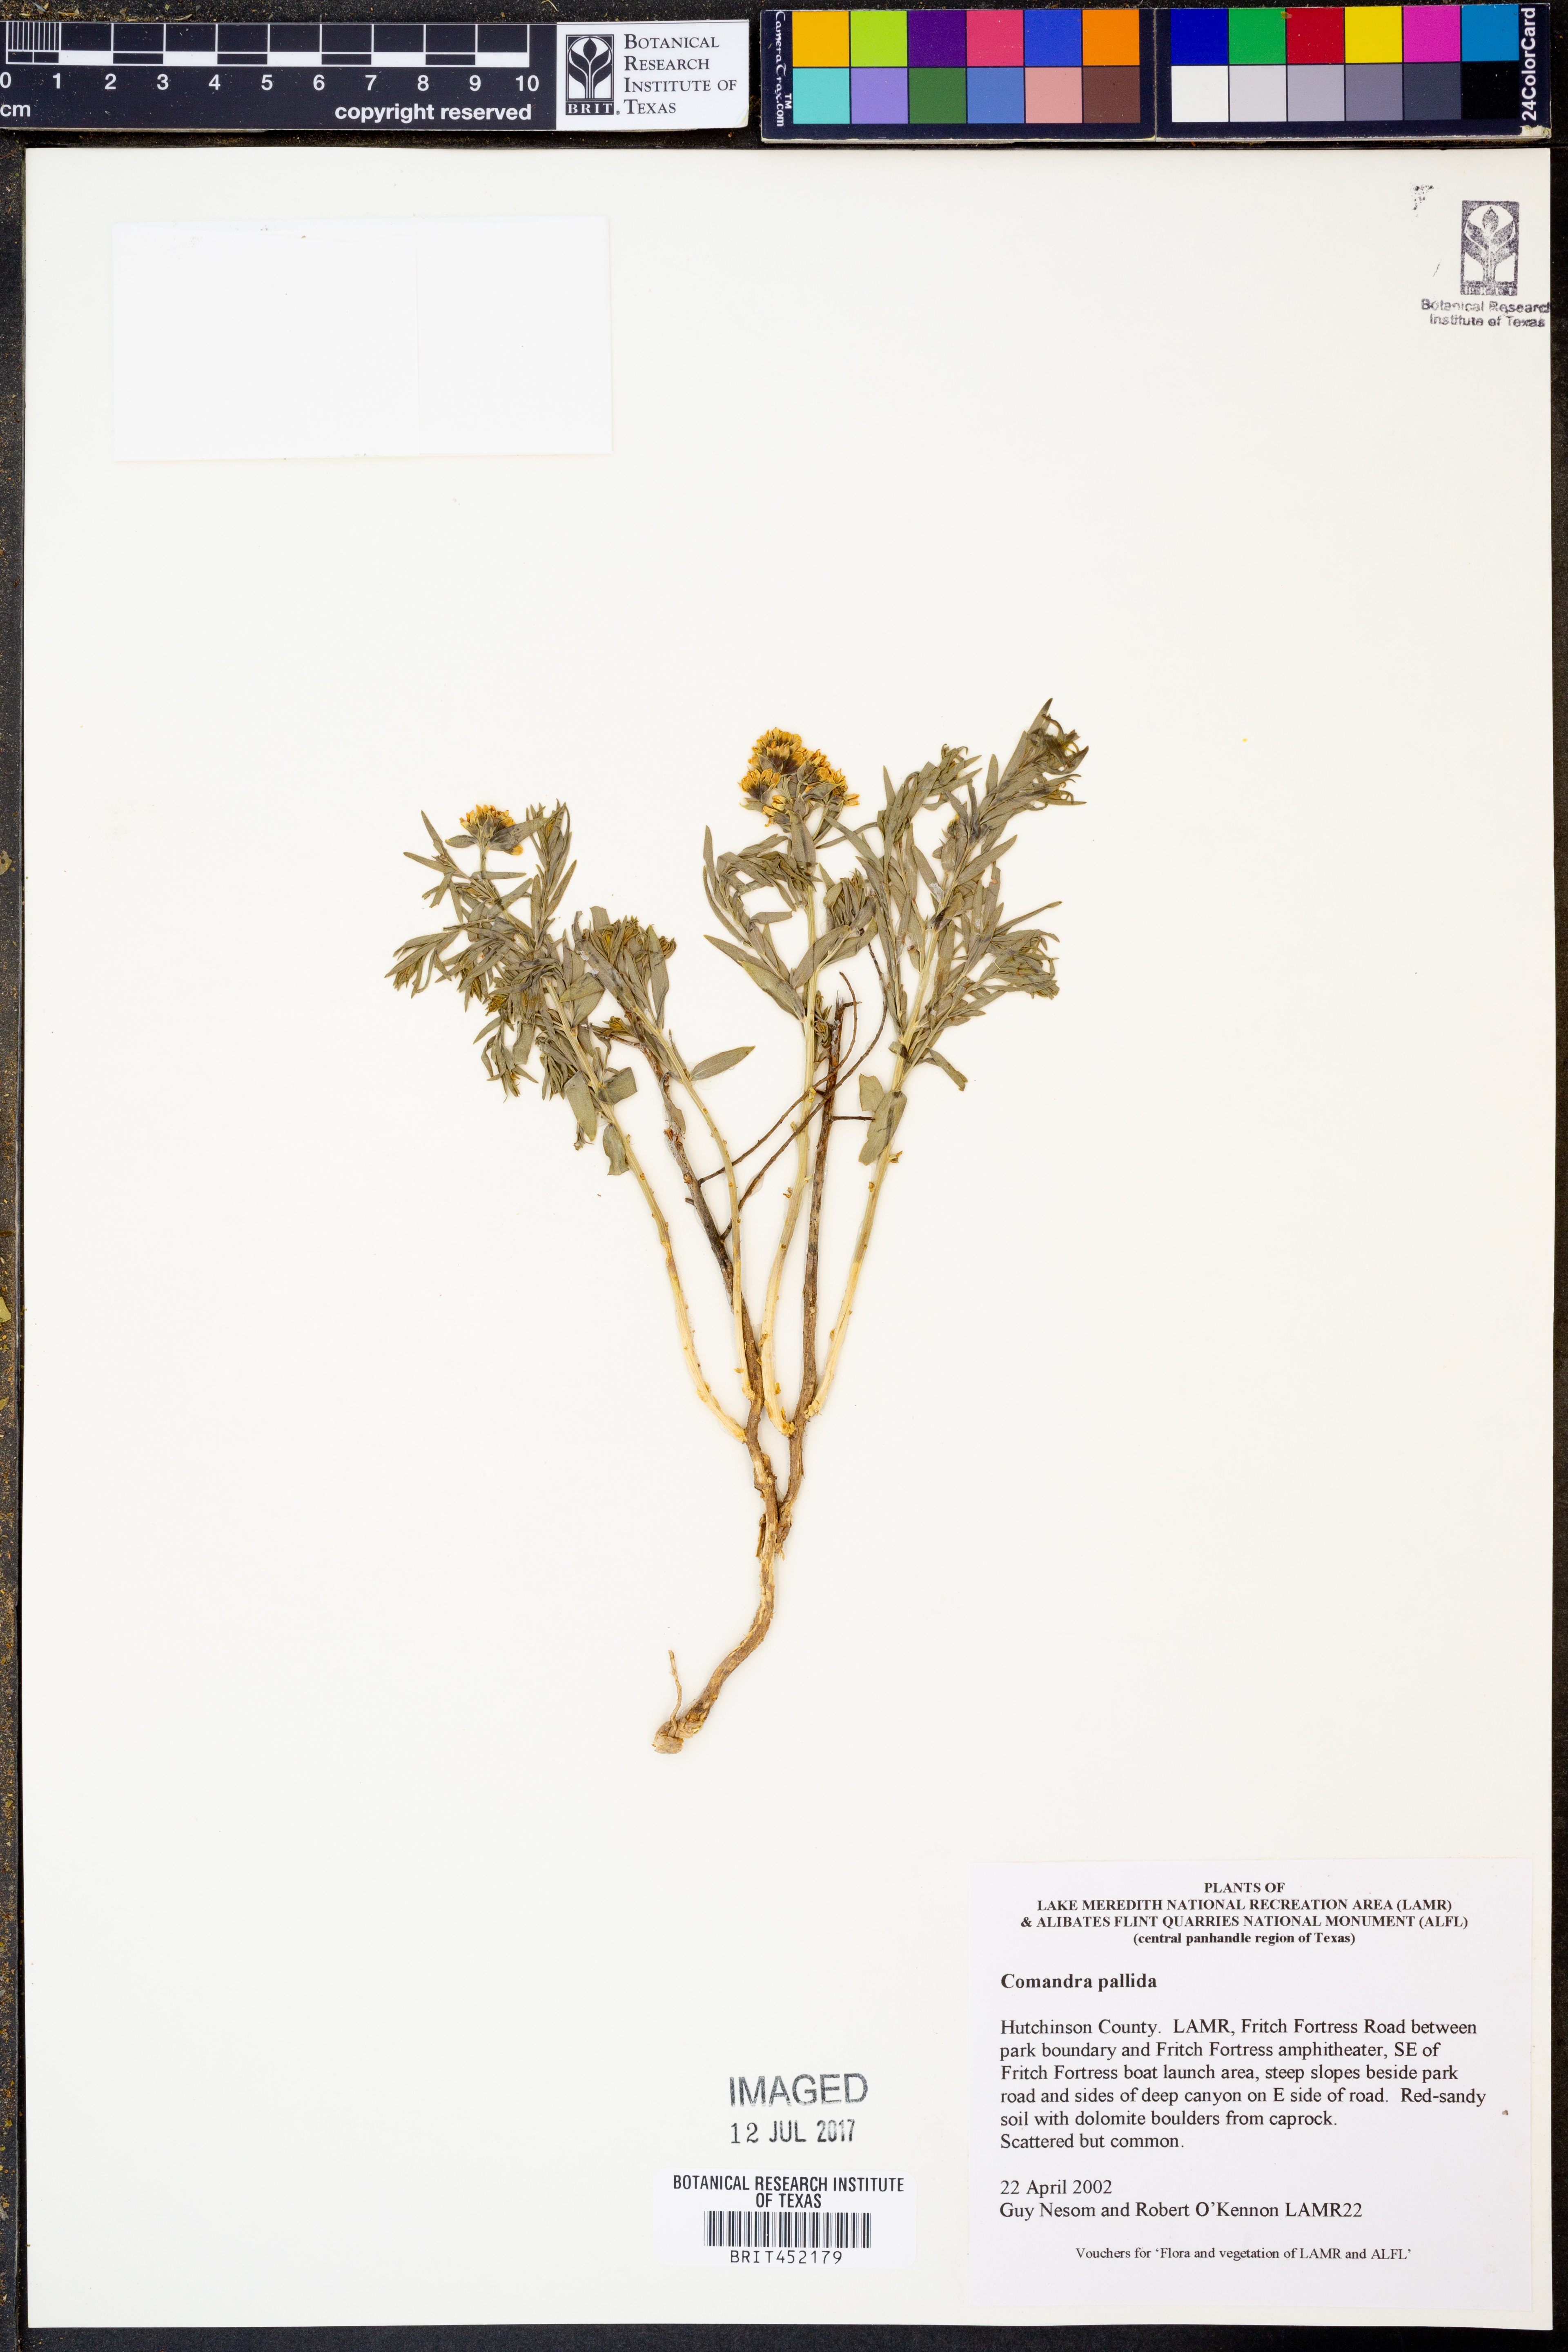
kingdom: Plantae
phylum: Tracheophyta
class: Magnoliopsida
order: Santalales
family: Comandraceae
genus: Comandra
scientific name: Comandra umbellata
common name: Bastard toadflax
